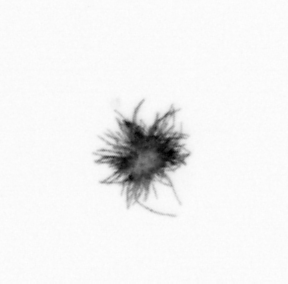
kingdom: Bacteria
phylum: Cyanobacteria
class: Cyanobacteriia
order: Cyanobacteriales
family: Microcoleaceae
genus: Trichodesmium
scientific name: Trichodesmium
